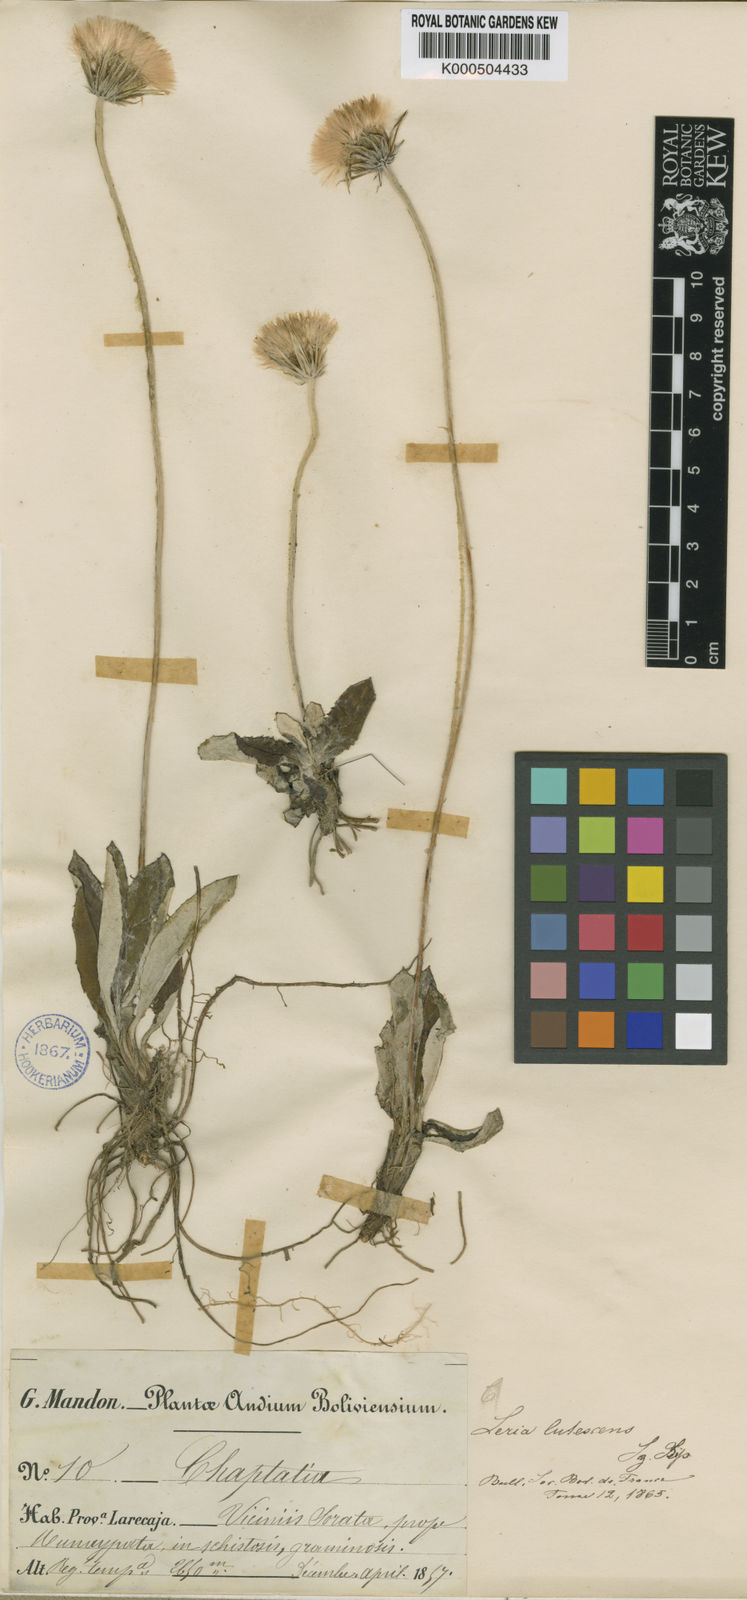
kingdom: Plantae
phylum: Tracheophyta
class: Magnoliopsida
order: Asterales
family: Asteraceae
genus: Chaptalia
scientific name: Chaptalia integerrima
